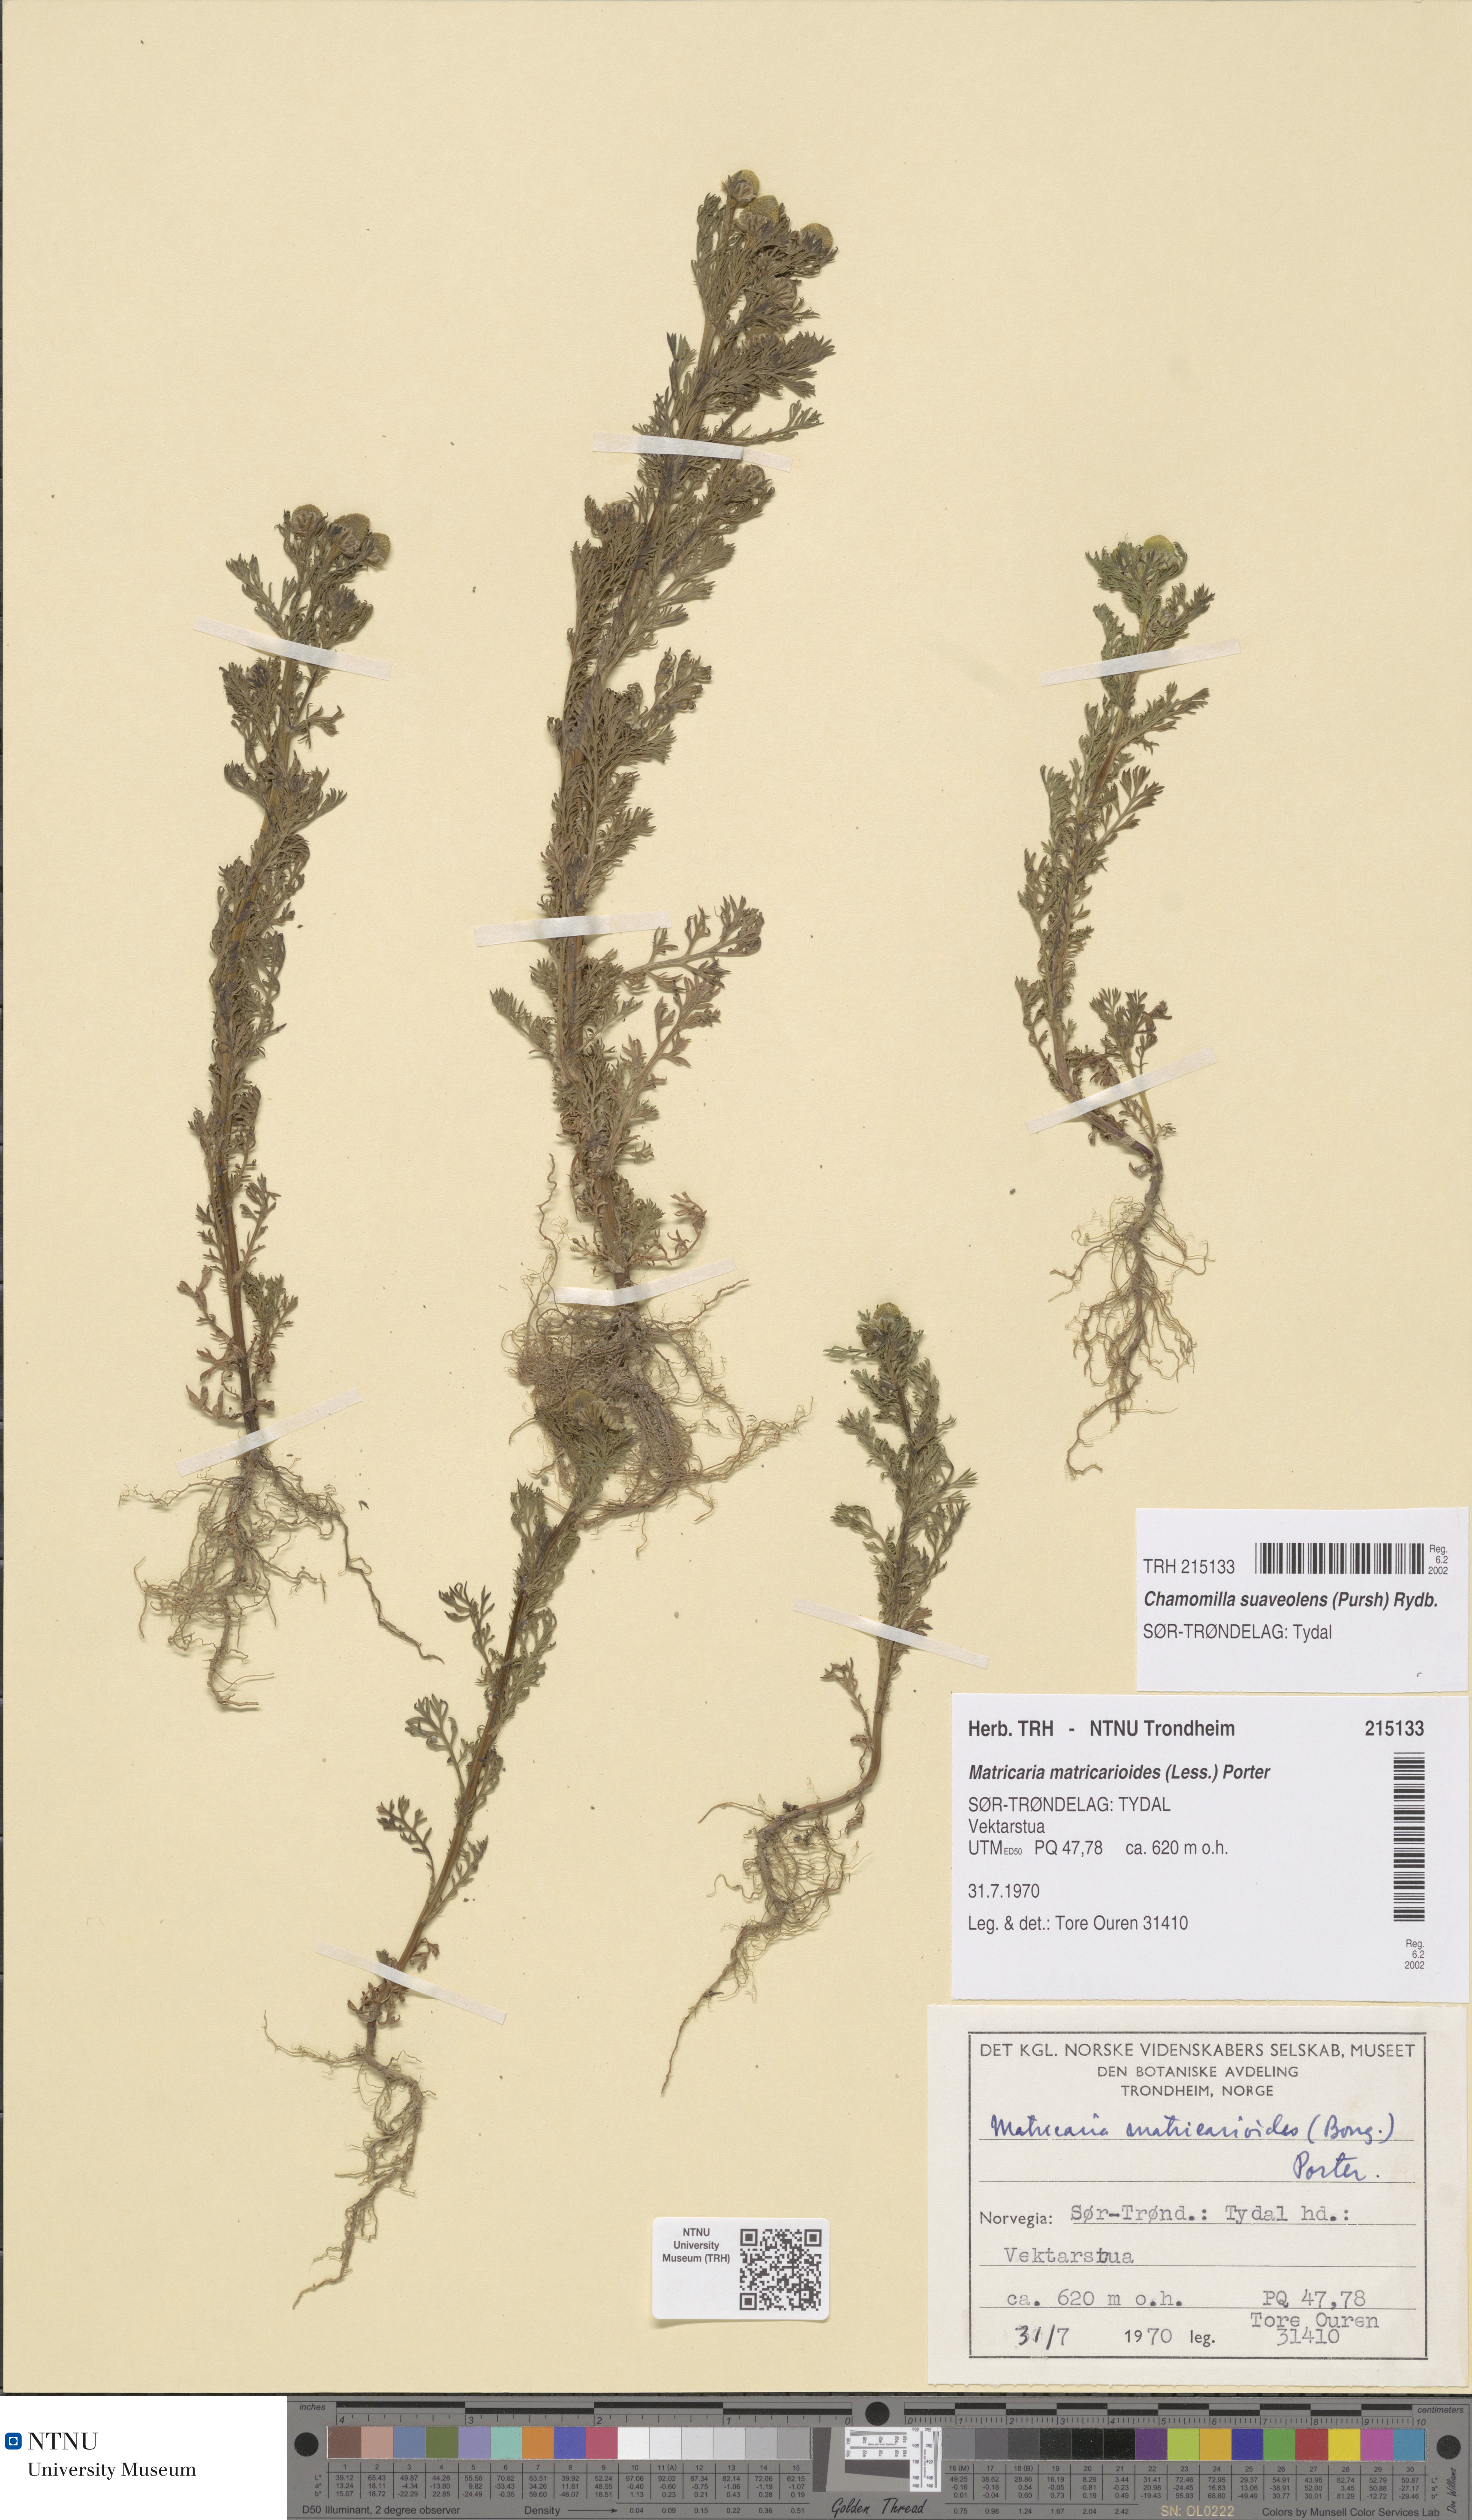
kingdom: Plantae
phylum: Tracheophyta
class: Magnoliopsida
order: Asterales
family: Asteraceae
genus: Matricaria
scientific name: Matricaria discoidea
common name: Disc mayweed
